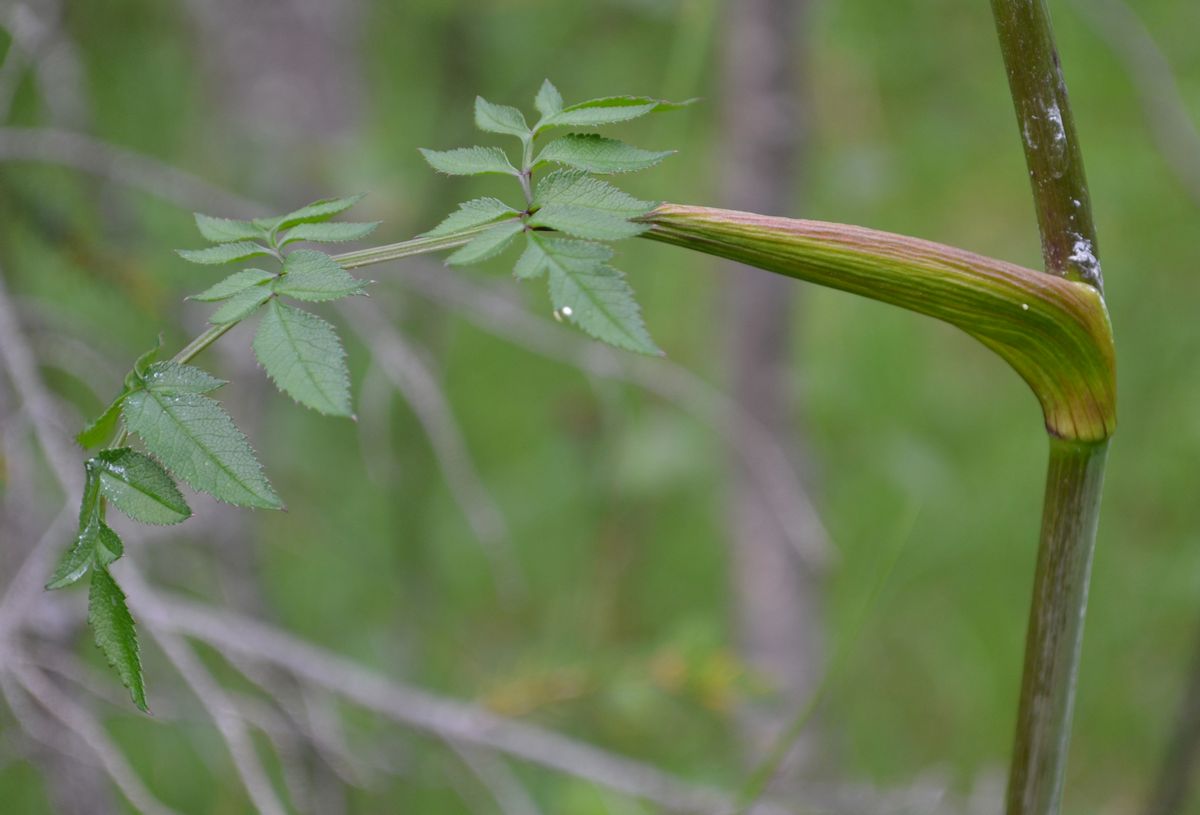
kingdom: Plantae
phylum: Tracheophyta
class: Magnoliopsida
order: Apiales
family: Apiaceae
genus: Angelica
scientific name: Angelica sylvestris
